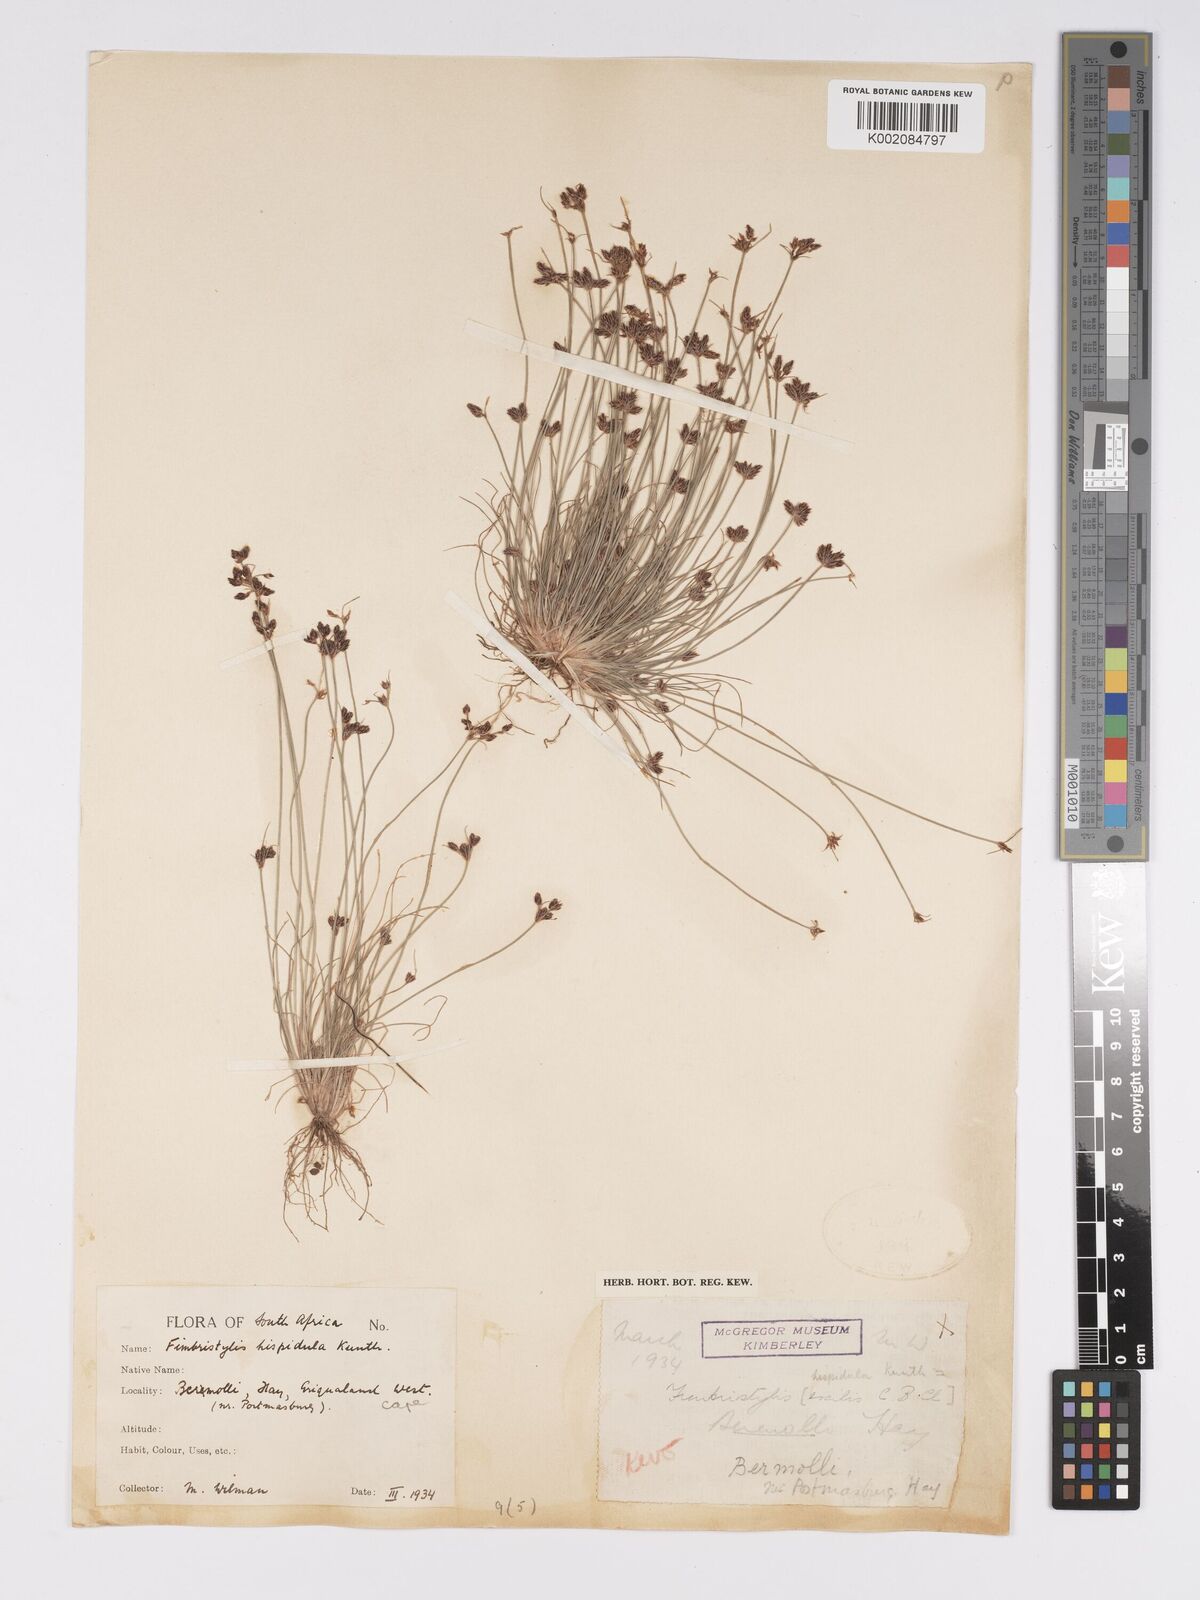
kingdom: Plantae
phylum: Tracheophyta
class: Liliopsida
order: Poales
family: Cyperaceae
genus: Bulbostylis
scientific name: Bulbostylis hispidula
